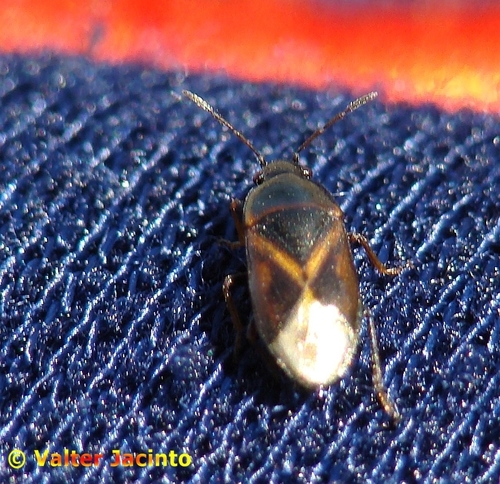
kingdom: Animalia
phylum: Arthropoda
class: Insecta
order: Hemiptera
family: Rhyparochromidae
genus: Lamprodema
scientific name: Lamprodema maura
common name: Seed bug
